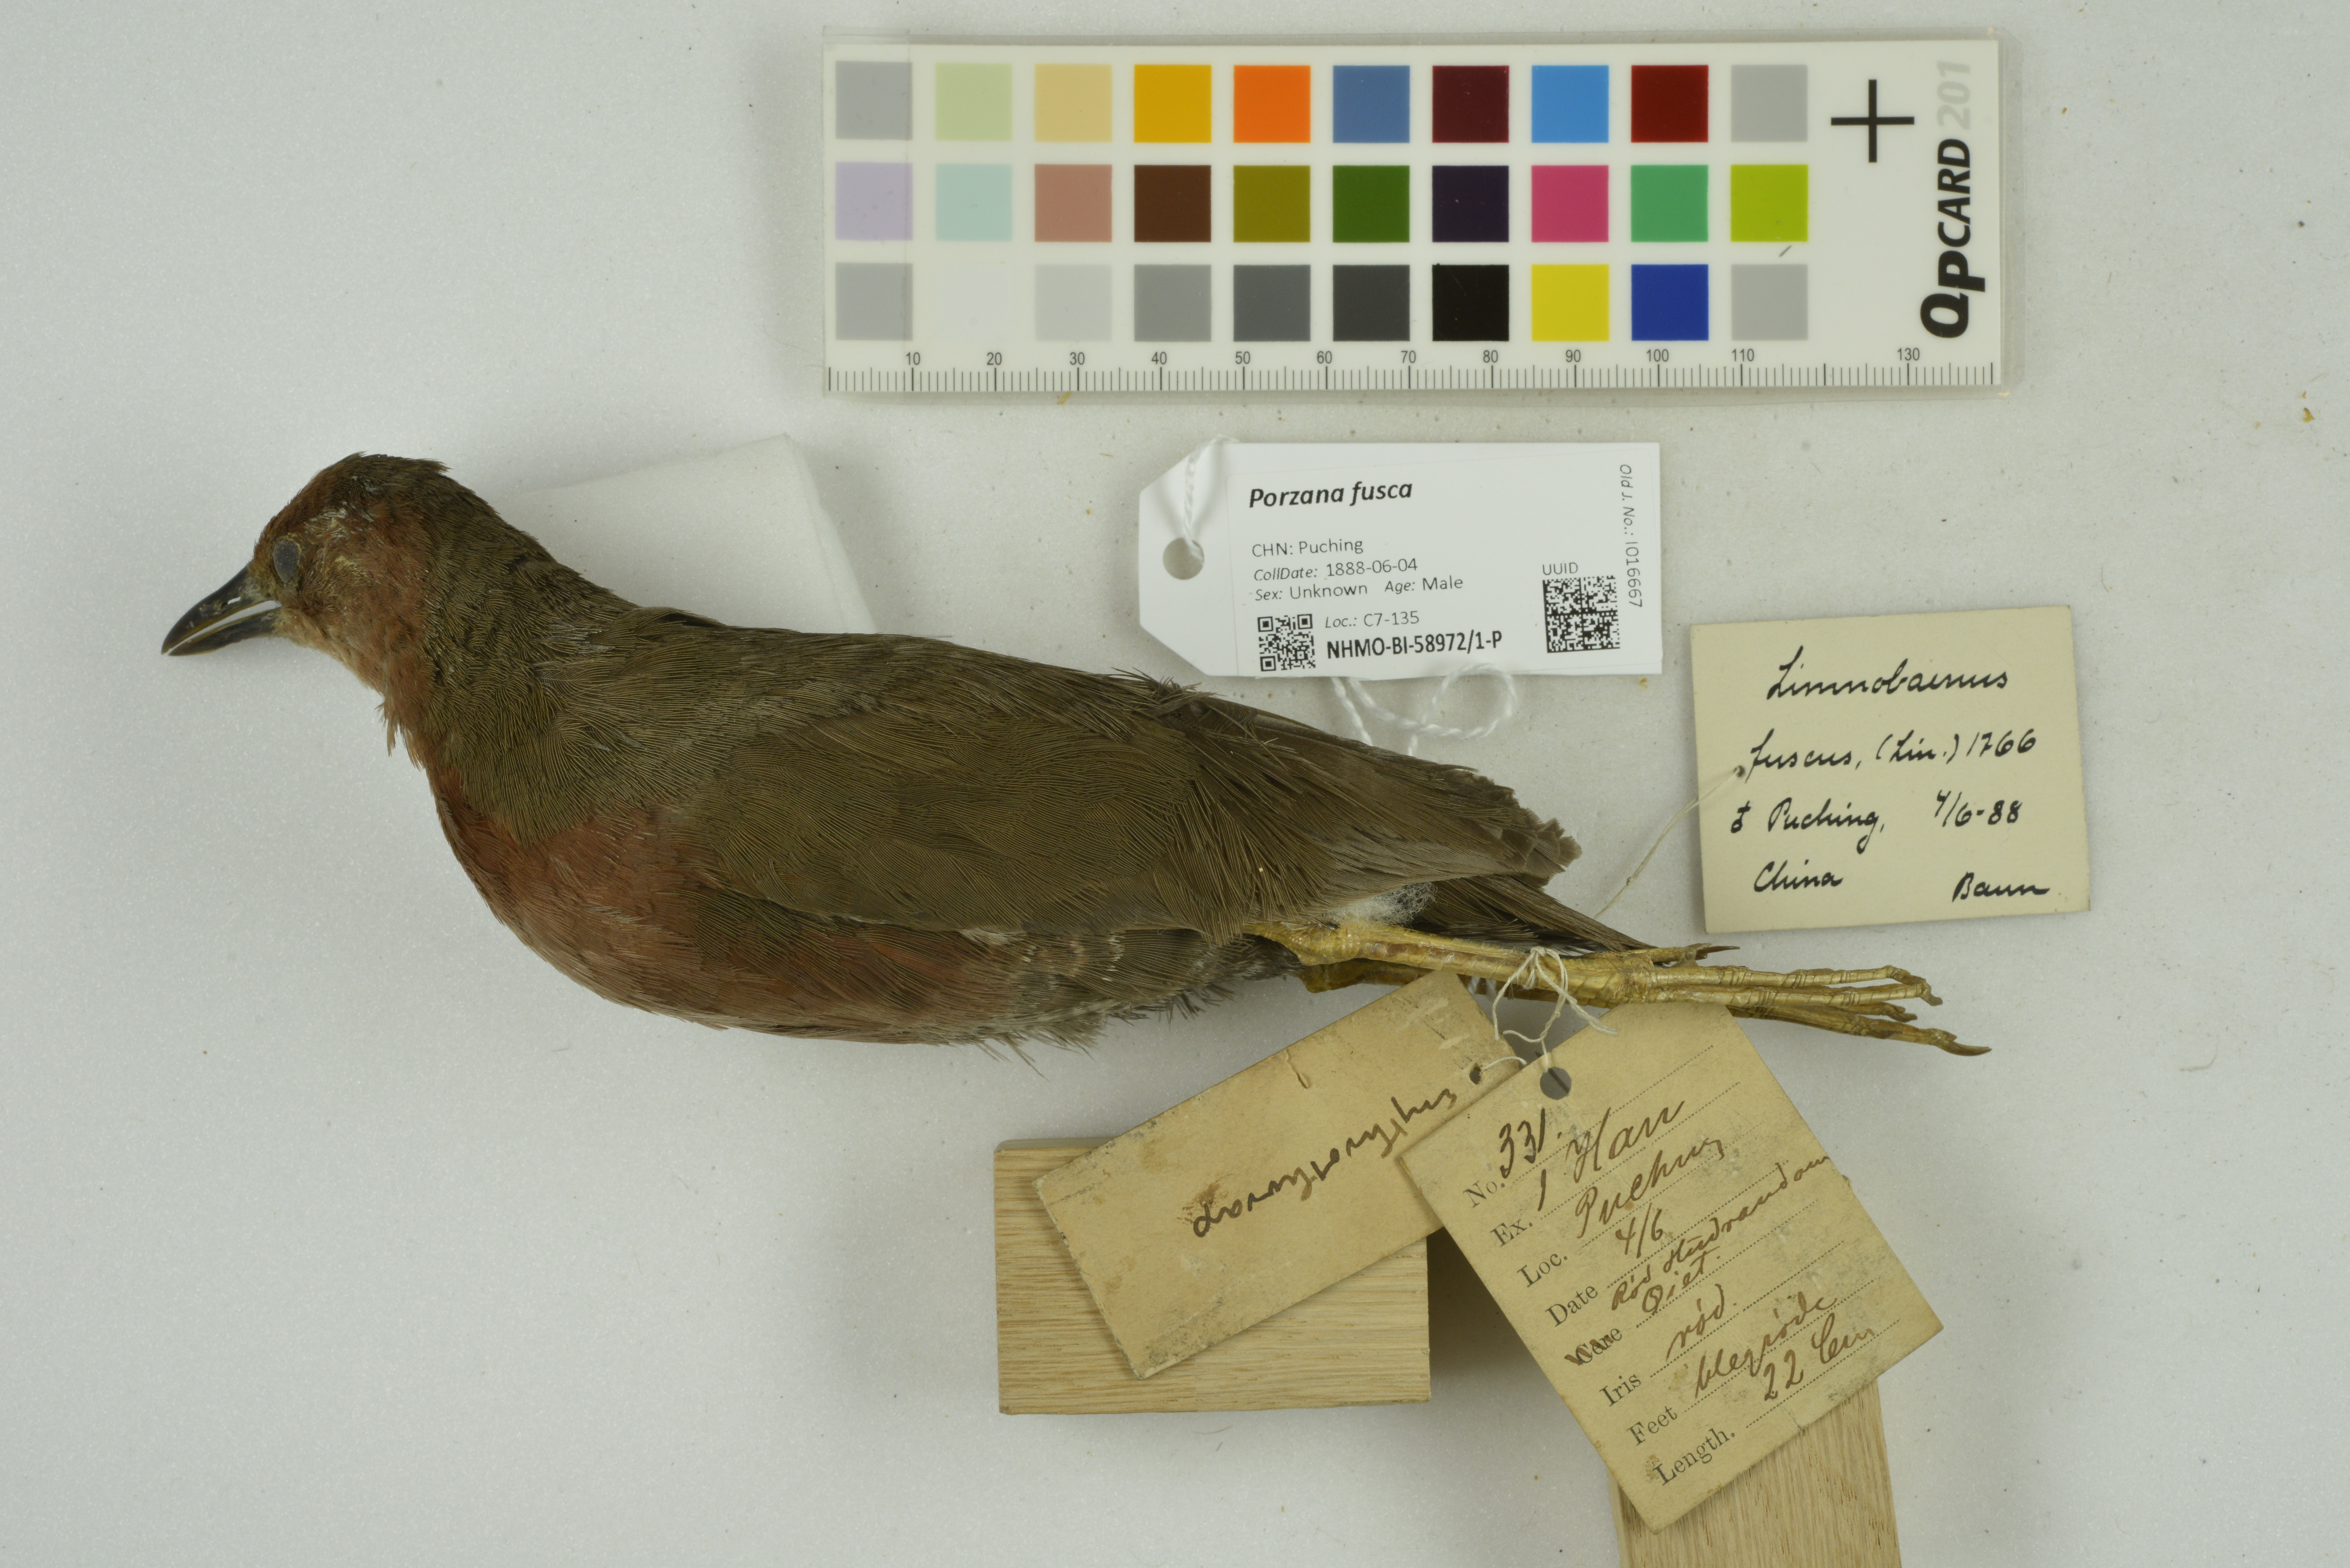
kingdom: Animalia
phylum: Chordata
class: Aves
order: Gruiformes
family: Rallidae
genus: Porzana
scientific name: Porzana fusca
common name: Ruddy-breasted crake
